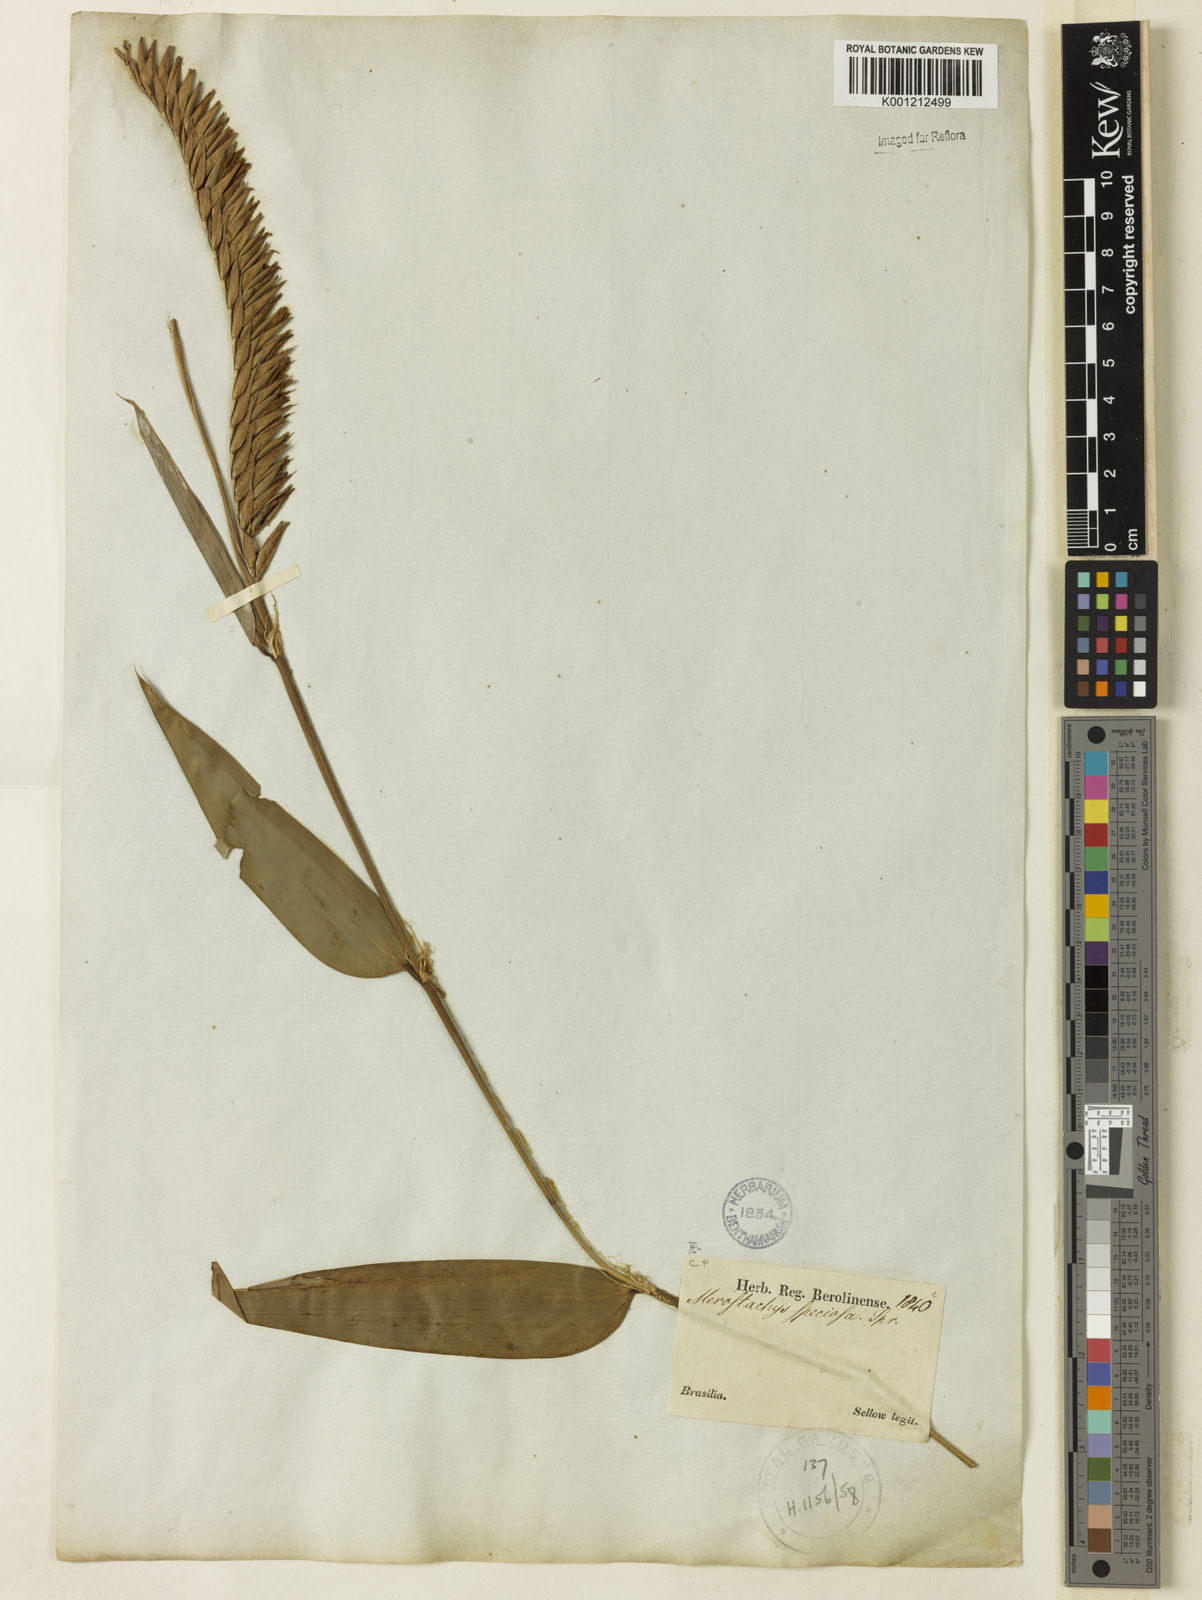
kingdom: Plantae
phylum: Tracheophyta
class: Liliopsida
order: Poales
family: Poaceae
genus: Merostachys
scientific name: Merostachys speciosa
